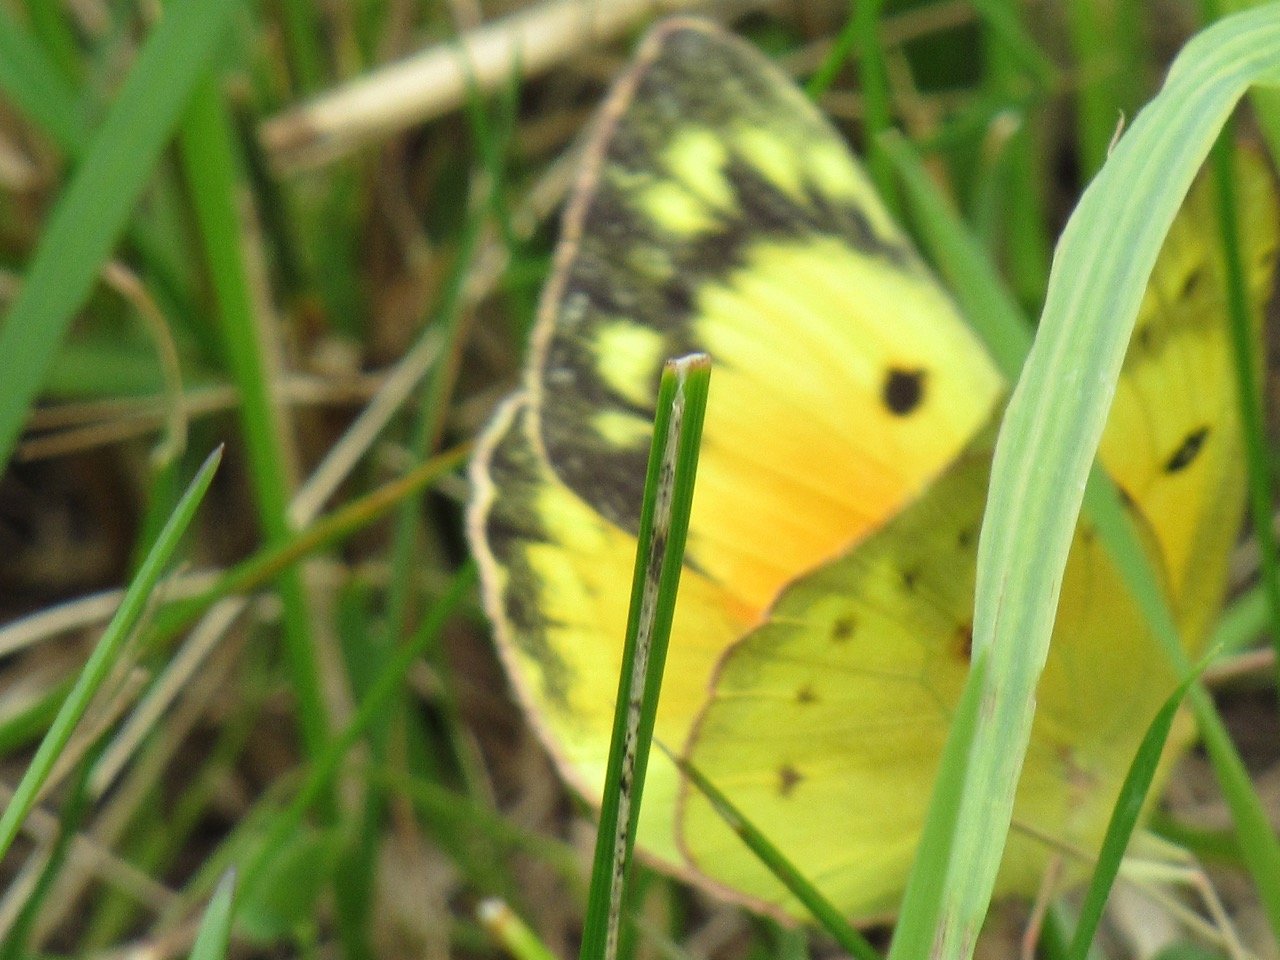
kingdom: Animalia
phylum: Arthropoda
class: Insecta
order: Lepidoptera
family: Pieridae
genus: Colias
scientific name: Colias eurytheme
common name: Orange Sulphur
